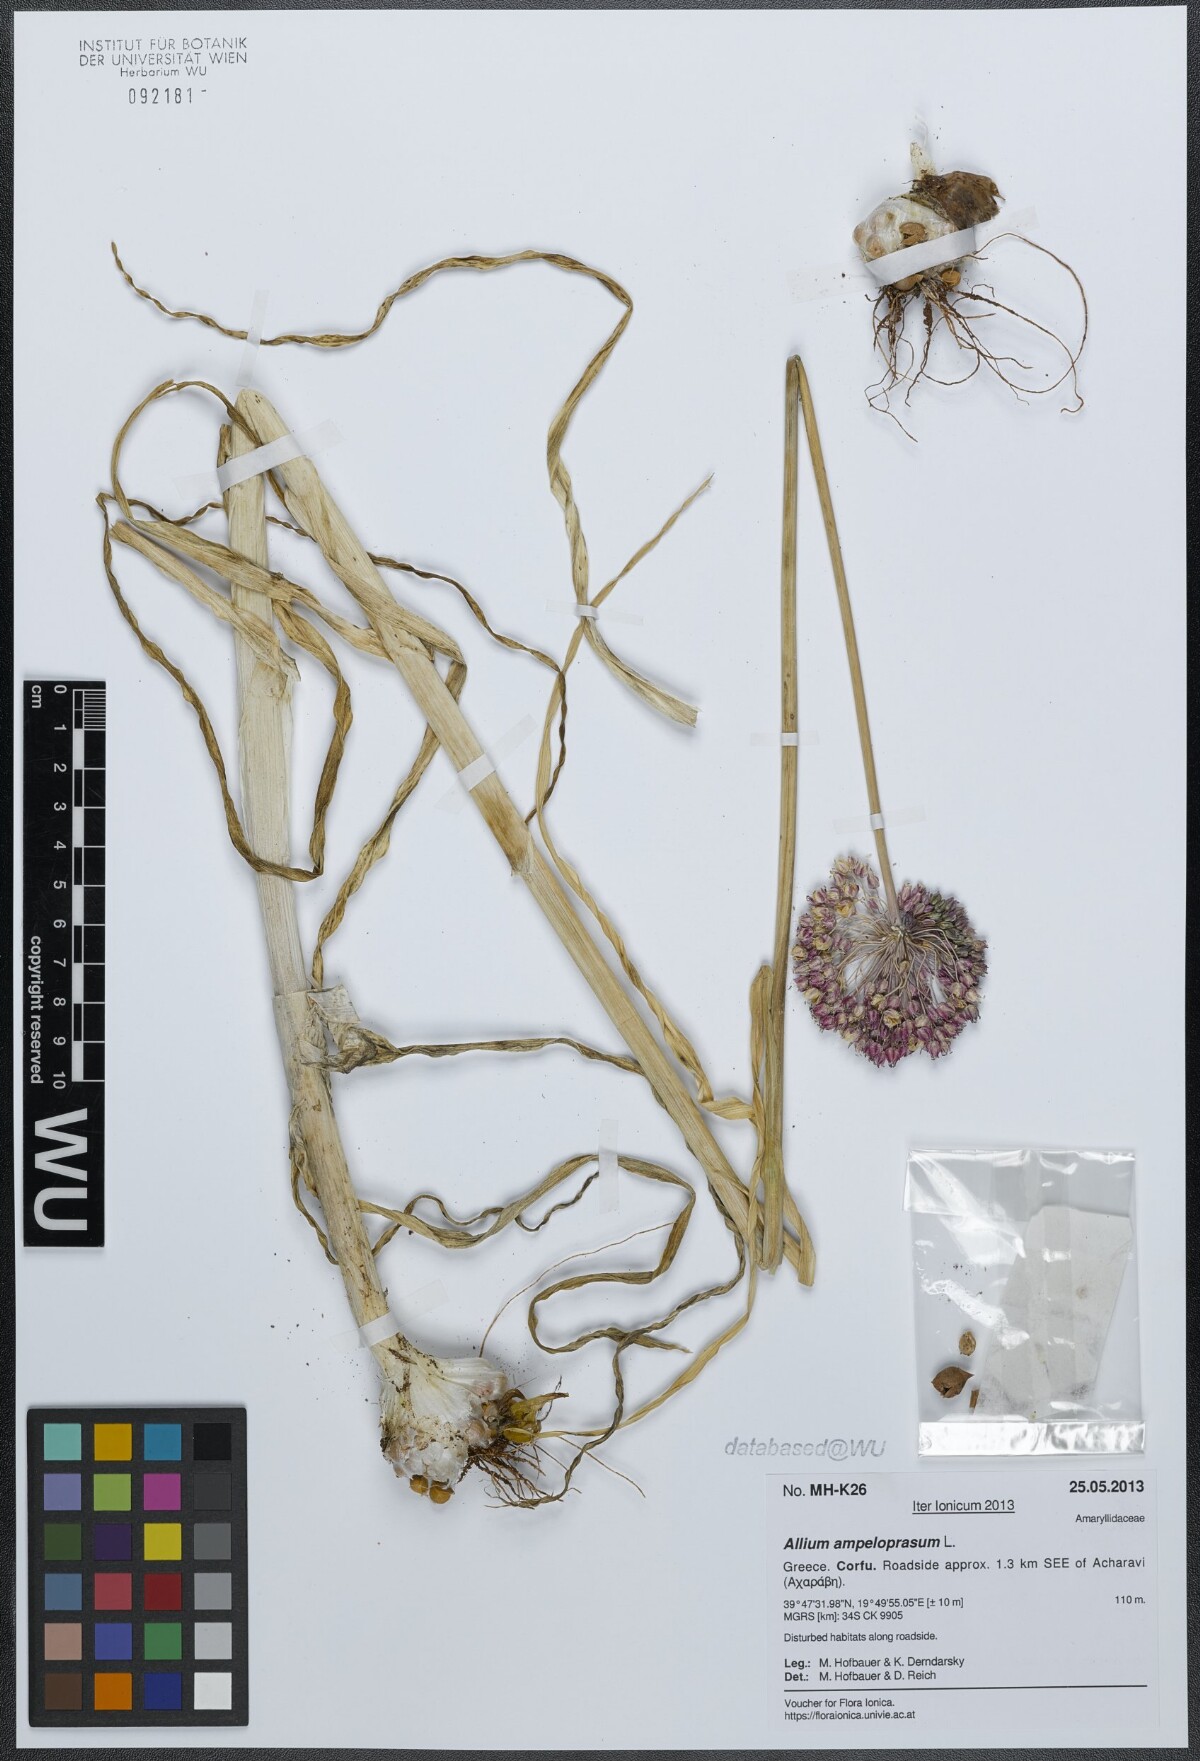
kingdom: Plantae
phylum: Tracheophyta
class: Liliopsida
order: Asparagales
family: Amaryllidaceae
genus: Allium
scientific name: Allium ampeloprasum
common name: Wild leek
